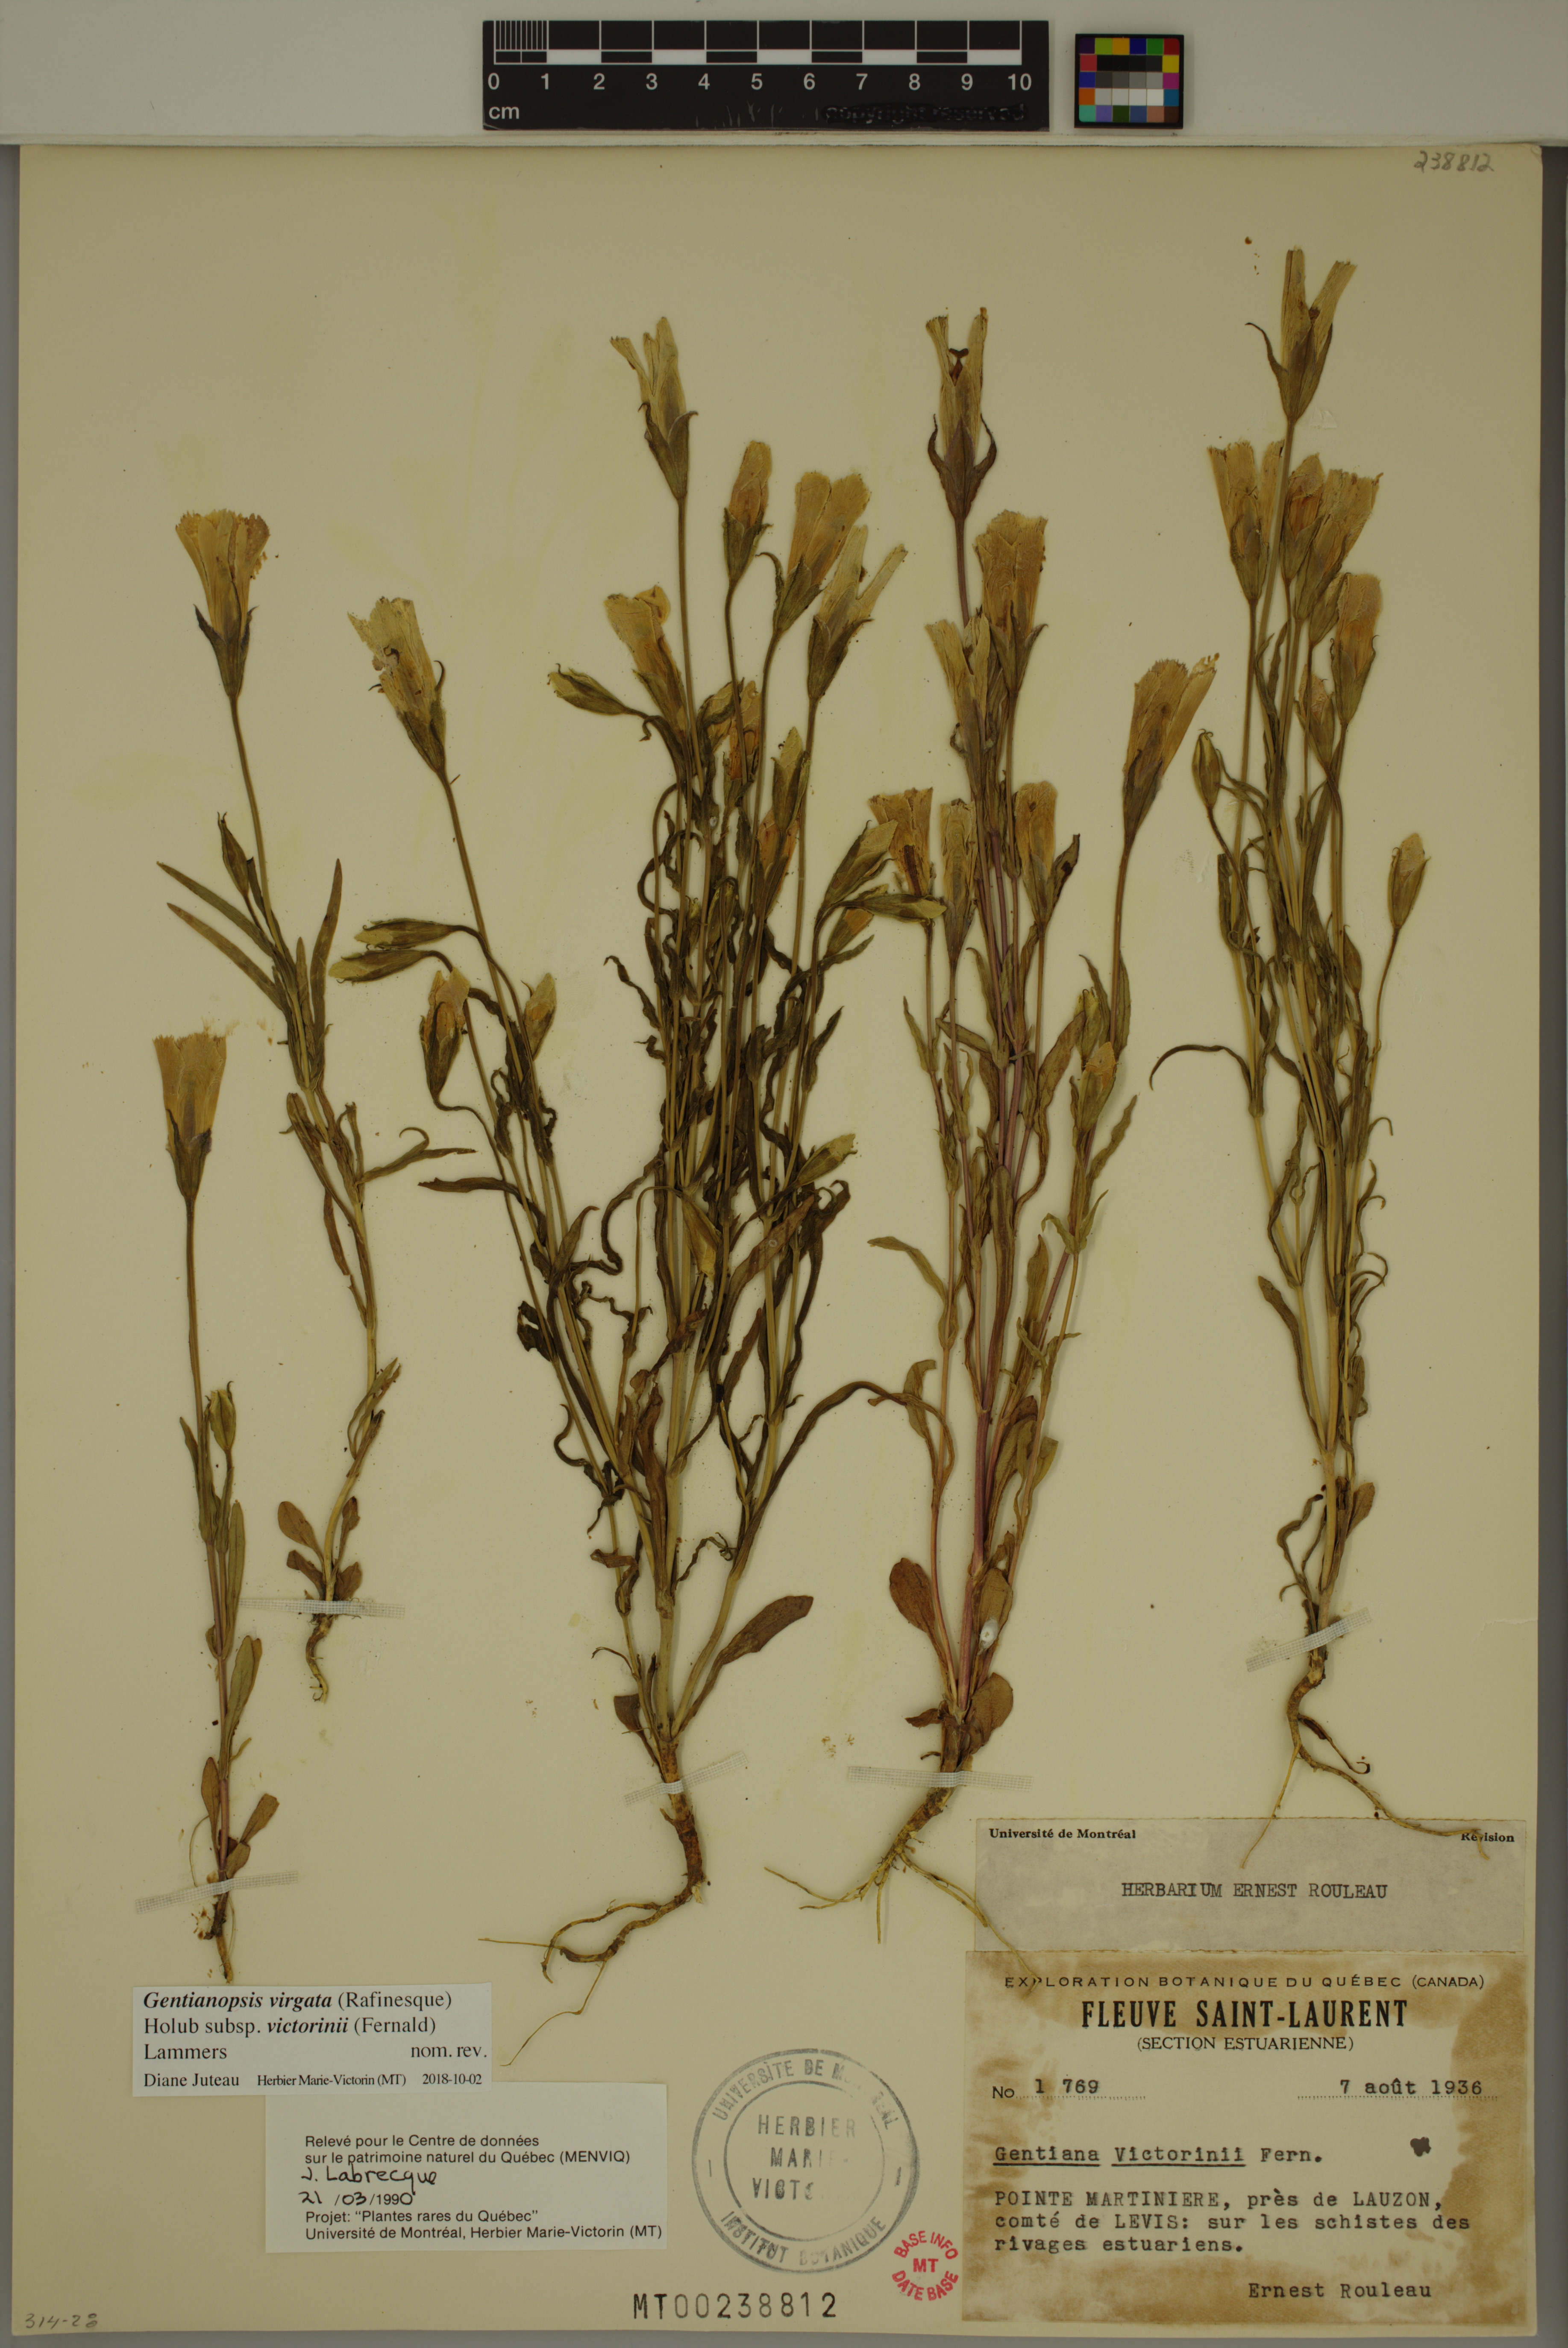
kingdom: Plantae
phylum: Tracheophyta
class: Magnoliopsida
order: Gentianales
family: Gentianaceae
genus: Gentianopsis
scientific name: Gentianopsis victorinii
